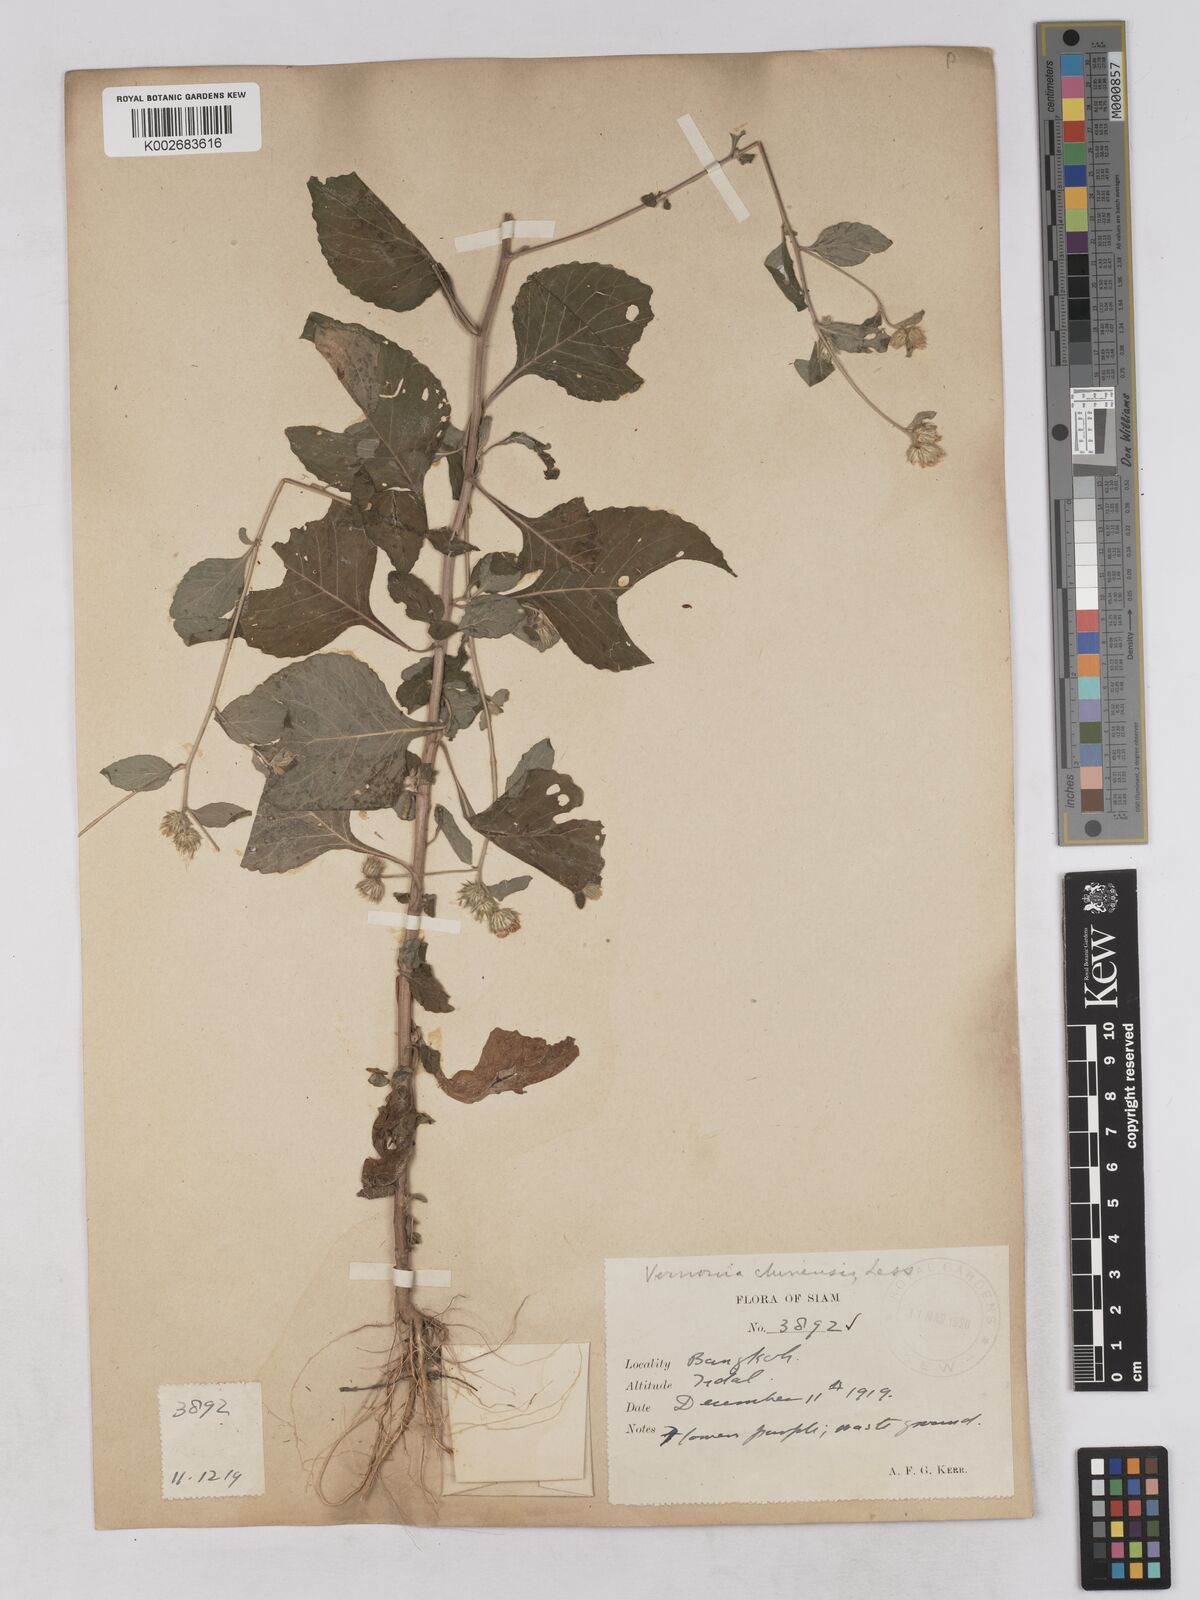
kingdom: Plantae
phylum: Tracheophyta
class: Magnoliopsida
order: Asterales
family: Asteraceae
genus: Cyanthillium
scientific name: Cyanthillium patulum
